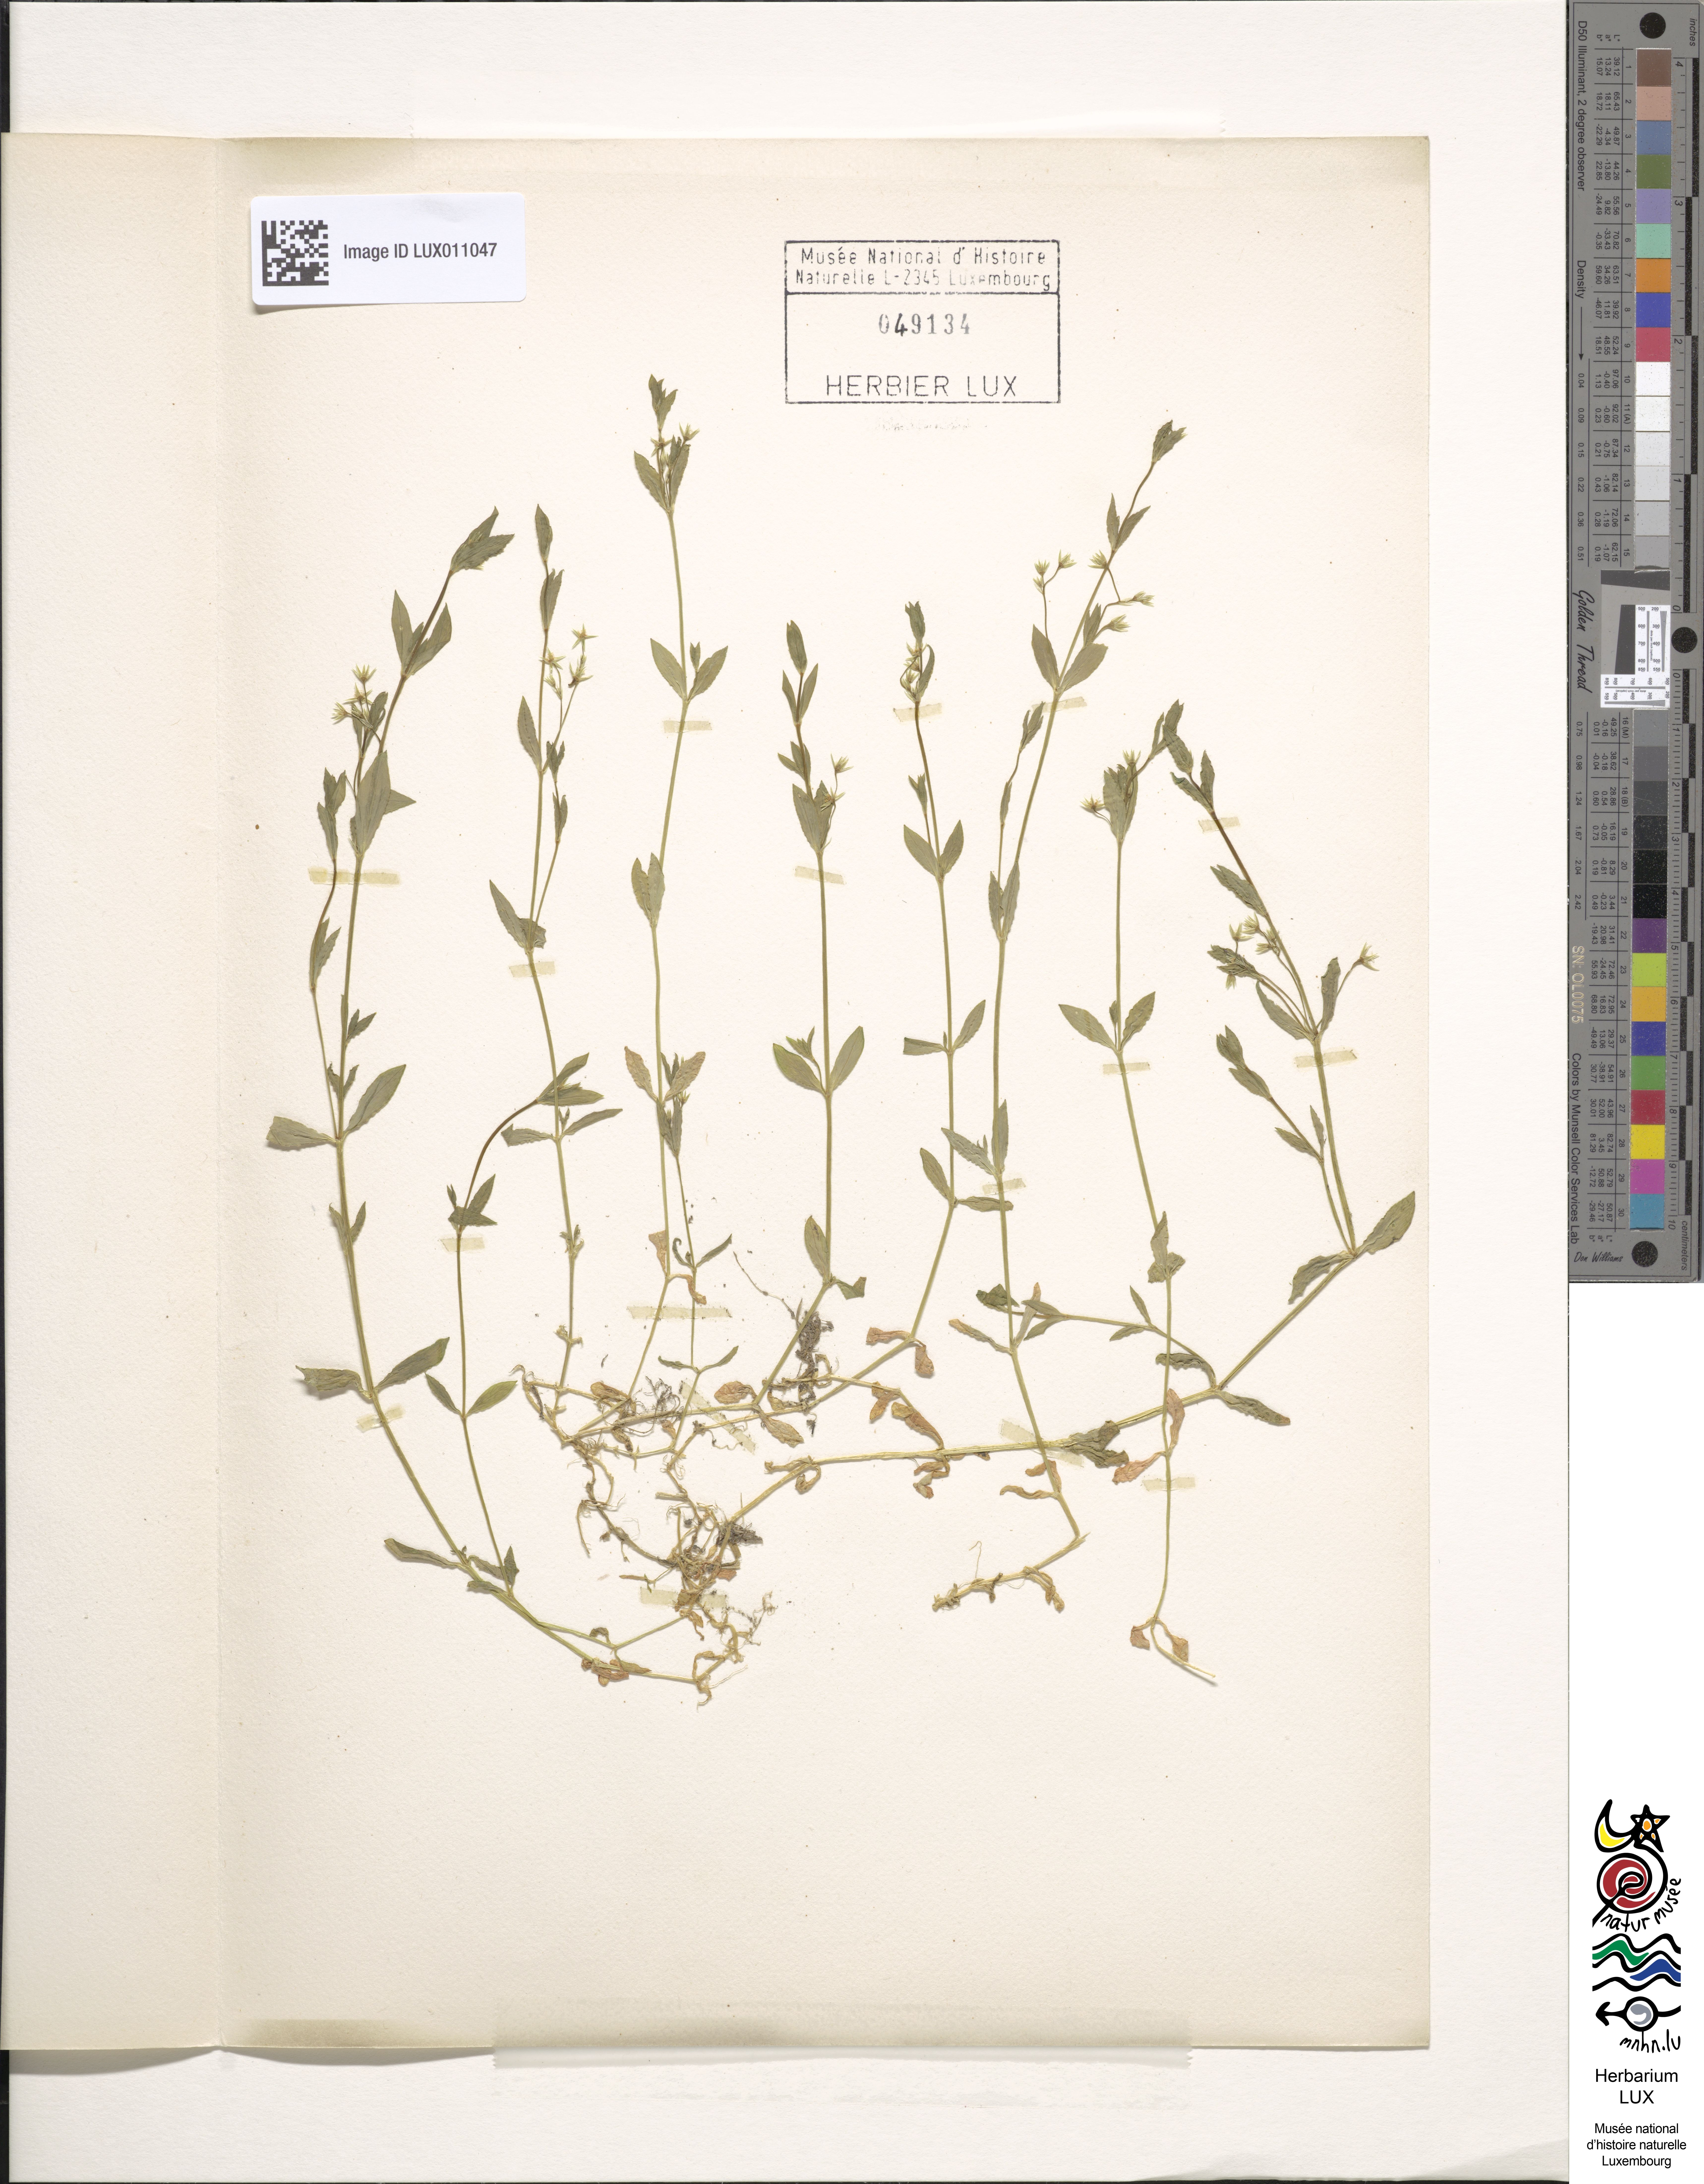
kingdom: Plantae
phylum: Tracheophyta
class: Magnoliopsida
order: Caryophyllales
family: Caryophyllaceae
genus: Stellaria
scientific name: Stellaria alsine
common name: Bog stitchwort
